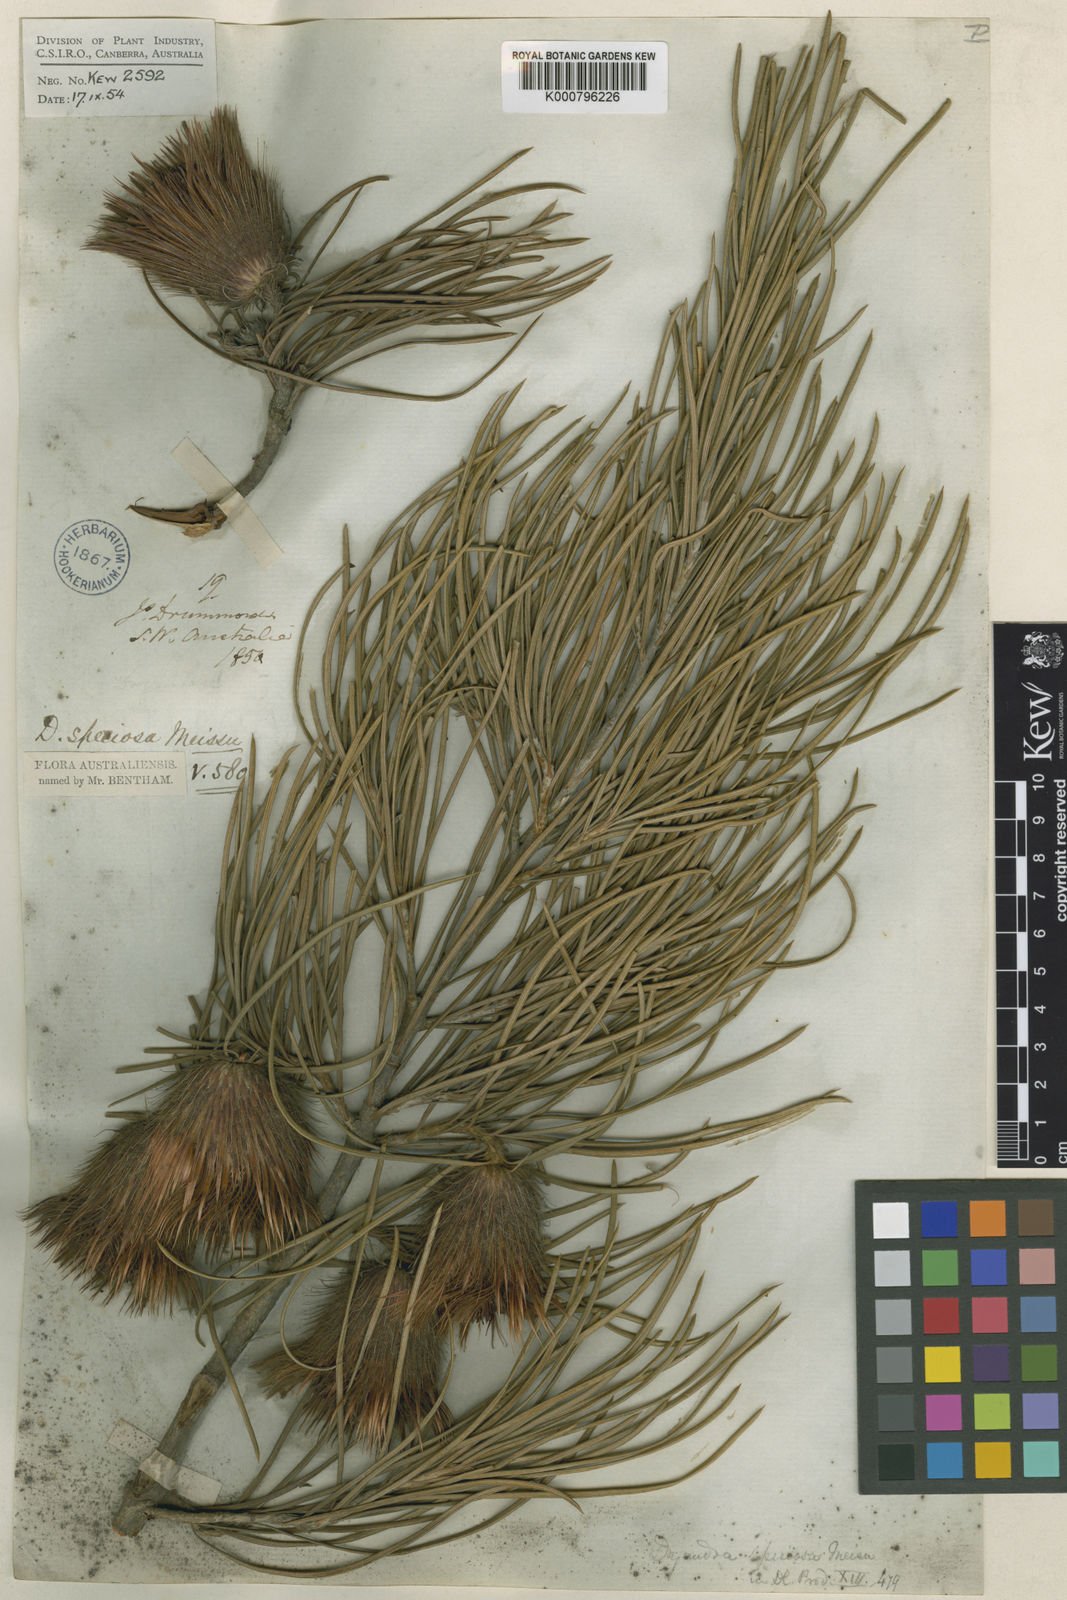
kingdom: Plantae
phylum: Tracheophyta
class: Magnoliopsida
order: Proteales
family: Proteaceae
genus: Banksia
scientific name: Banksia splendida
